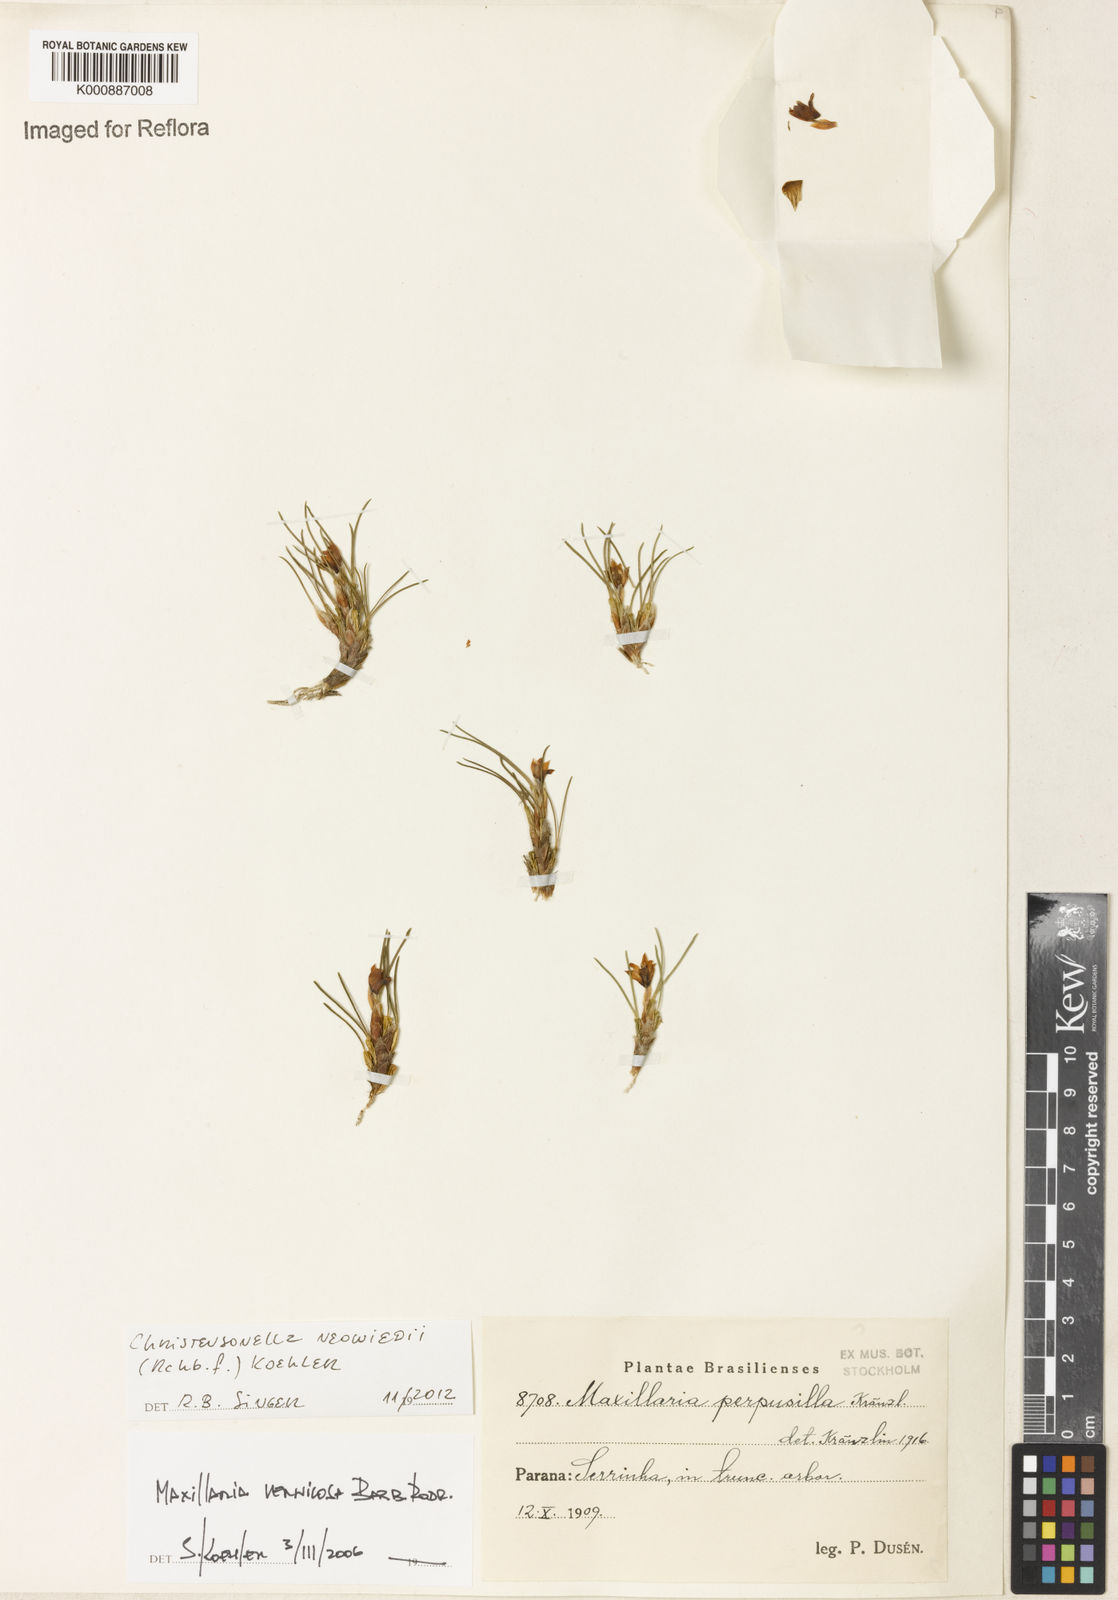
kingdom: Plantae
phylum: Tracheophyta
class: Liliopsida
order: Asparagales
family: Orchidaceae
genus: Maxillaria
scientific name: Maxillaria neowiedii
